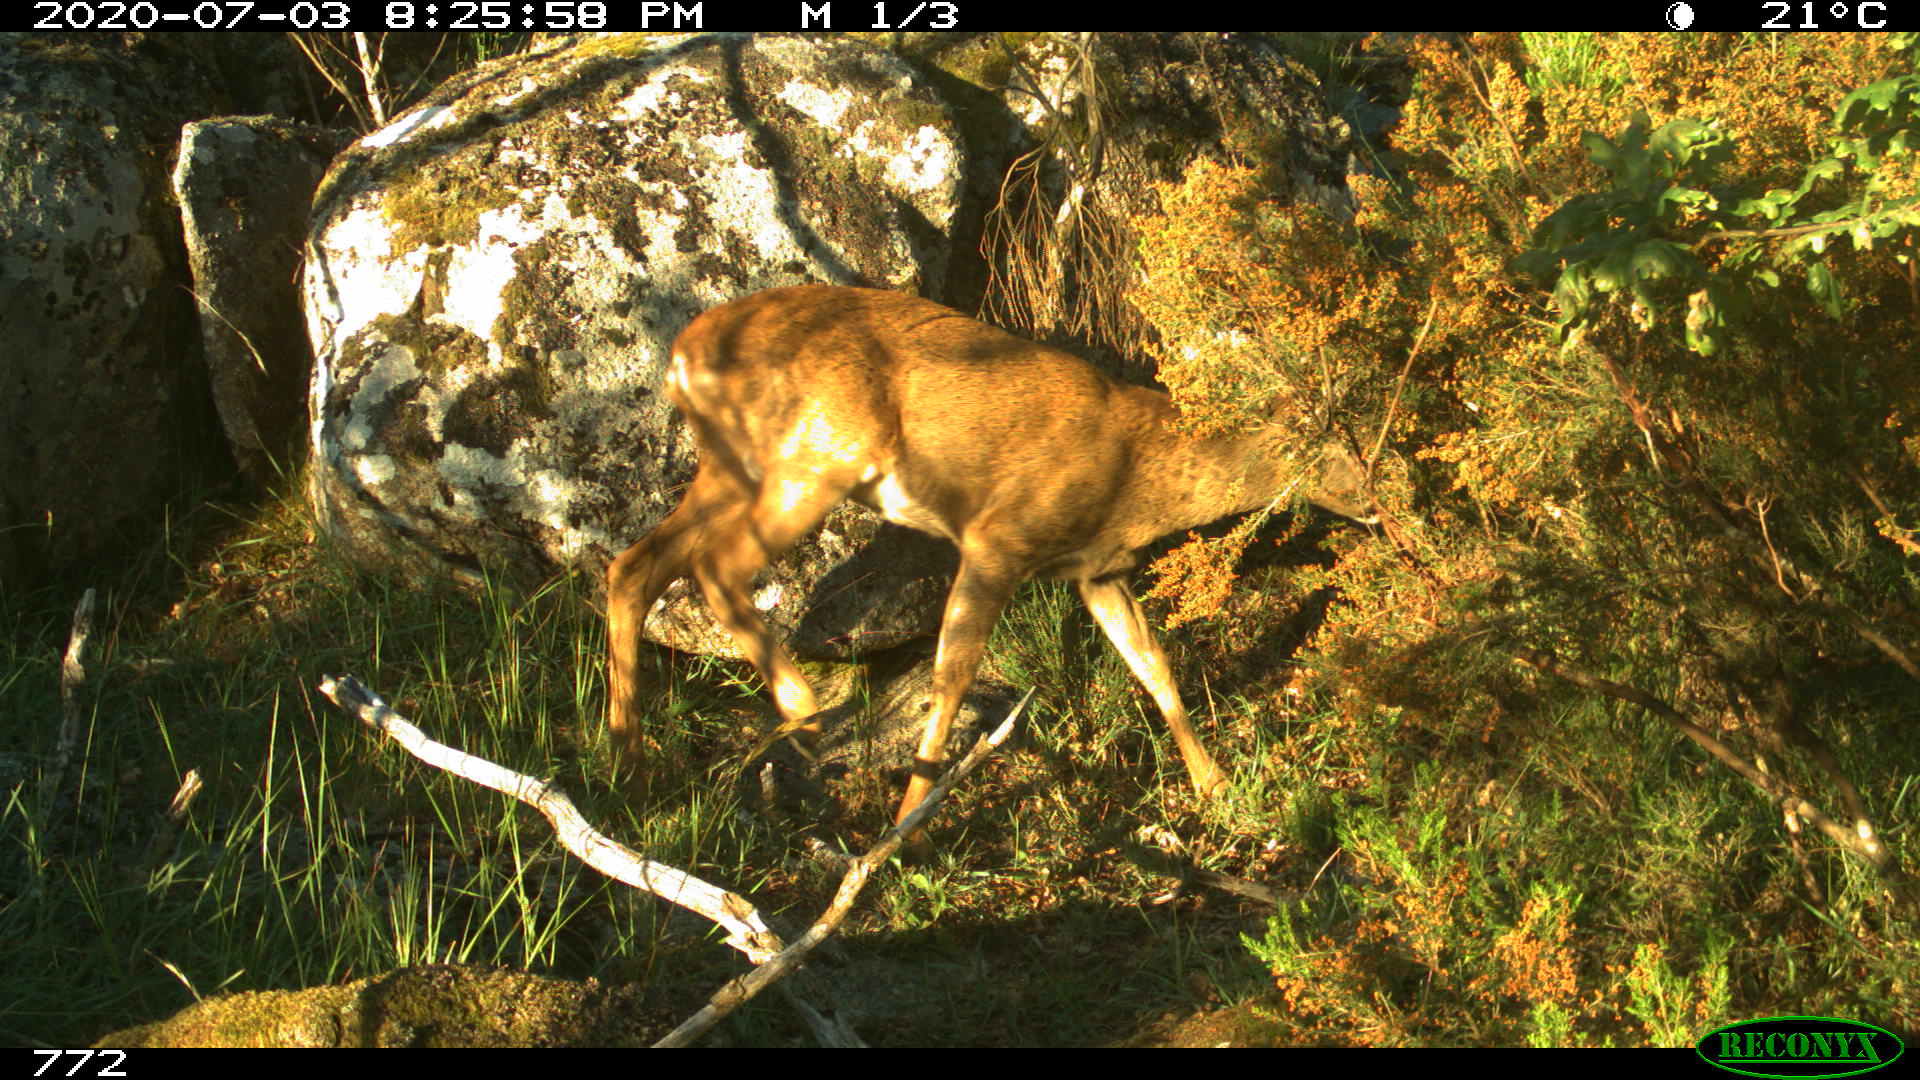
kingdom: Animalia
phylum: Chordata
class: Mammalia
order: Artiodactyla
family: Cervidae
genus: Capreolus
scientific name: Capreolus capreolus
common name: Western roe deer
